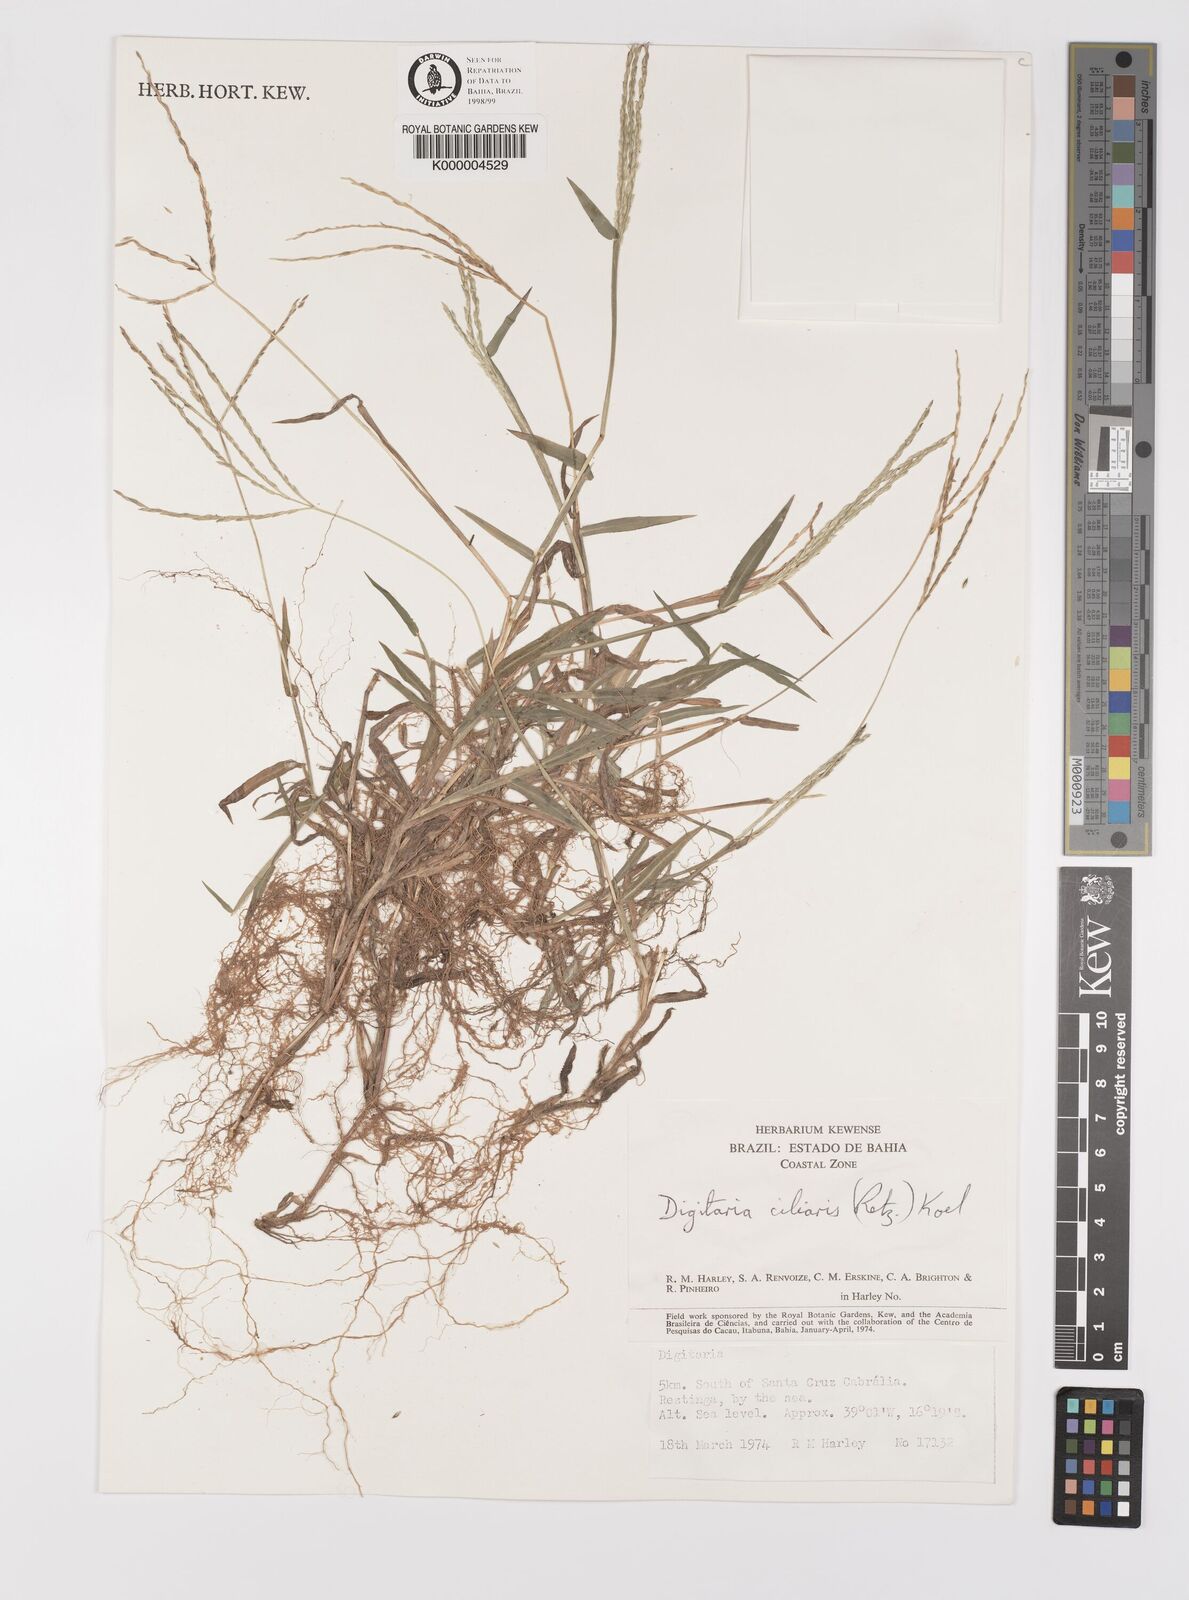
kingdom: Plantae
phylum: Tracheophyta
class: Liliopsida
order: Poales
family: Poaceae
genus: Digitaria
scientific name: Digitaria ciliaris
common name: Tropical finger-grass
